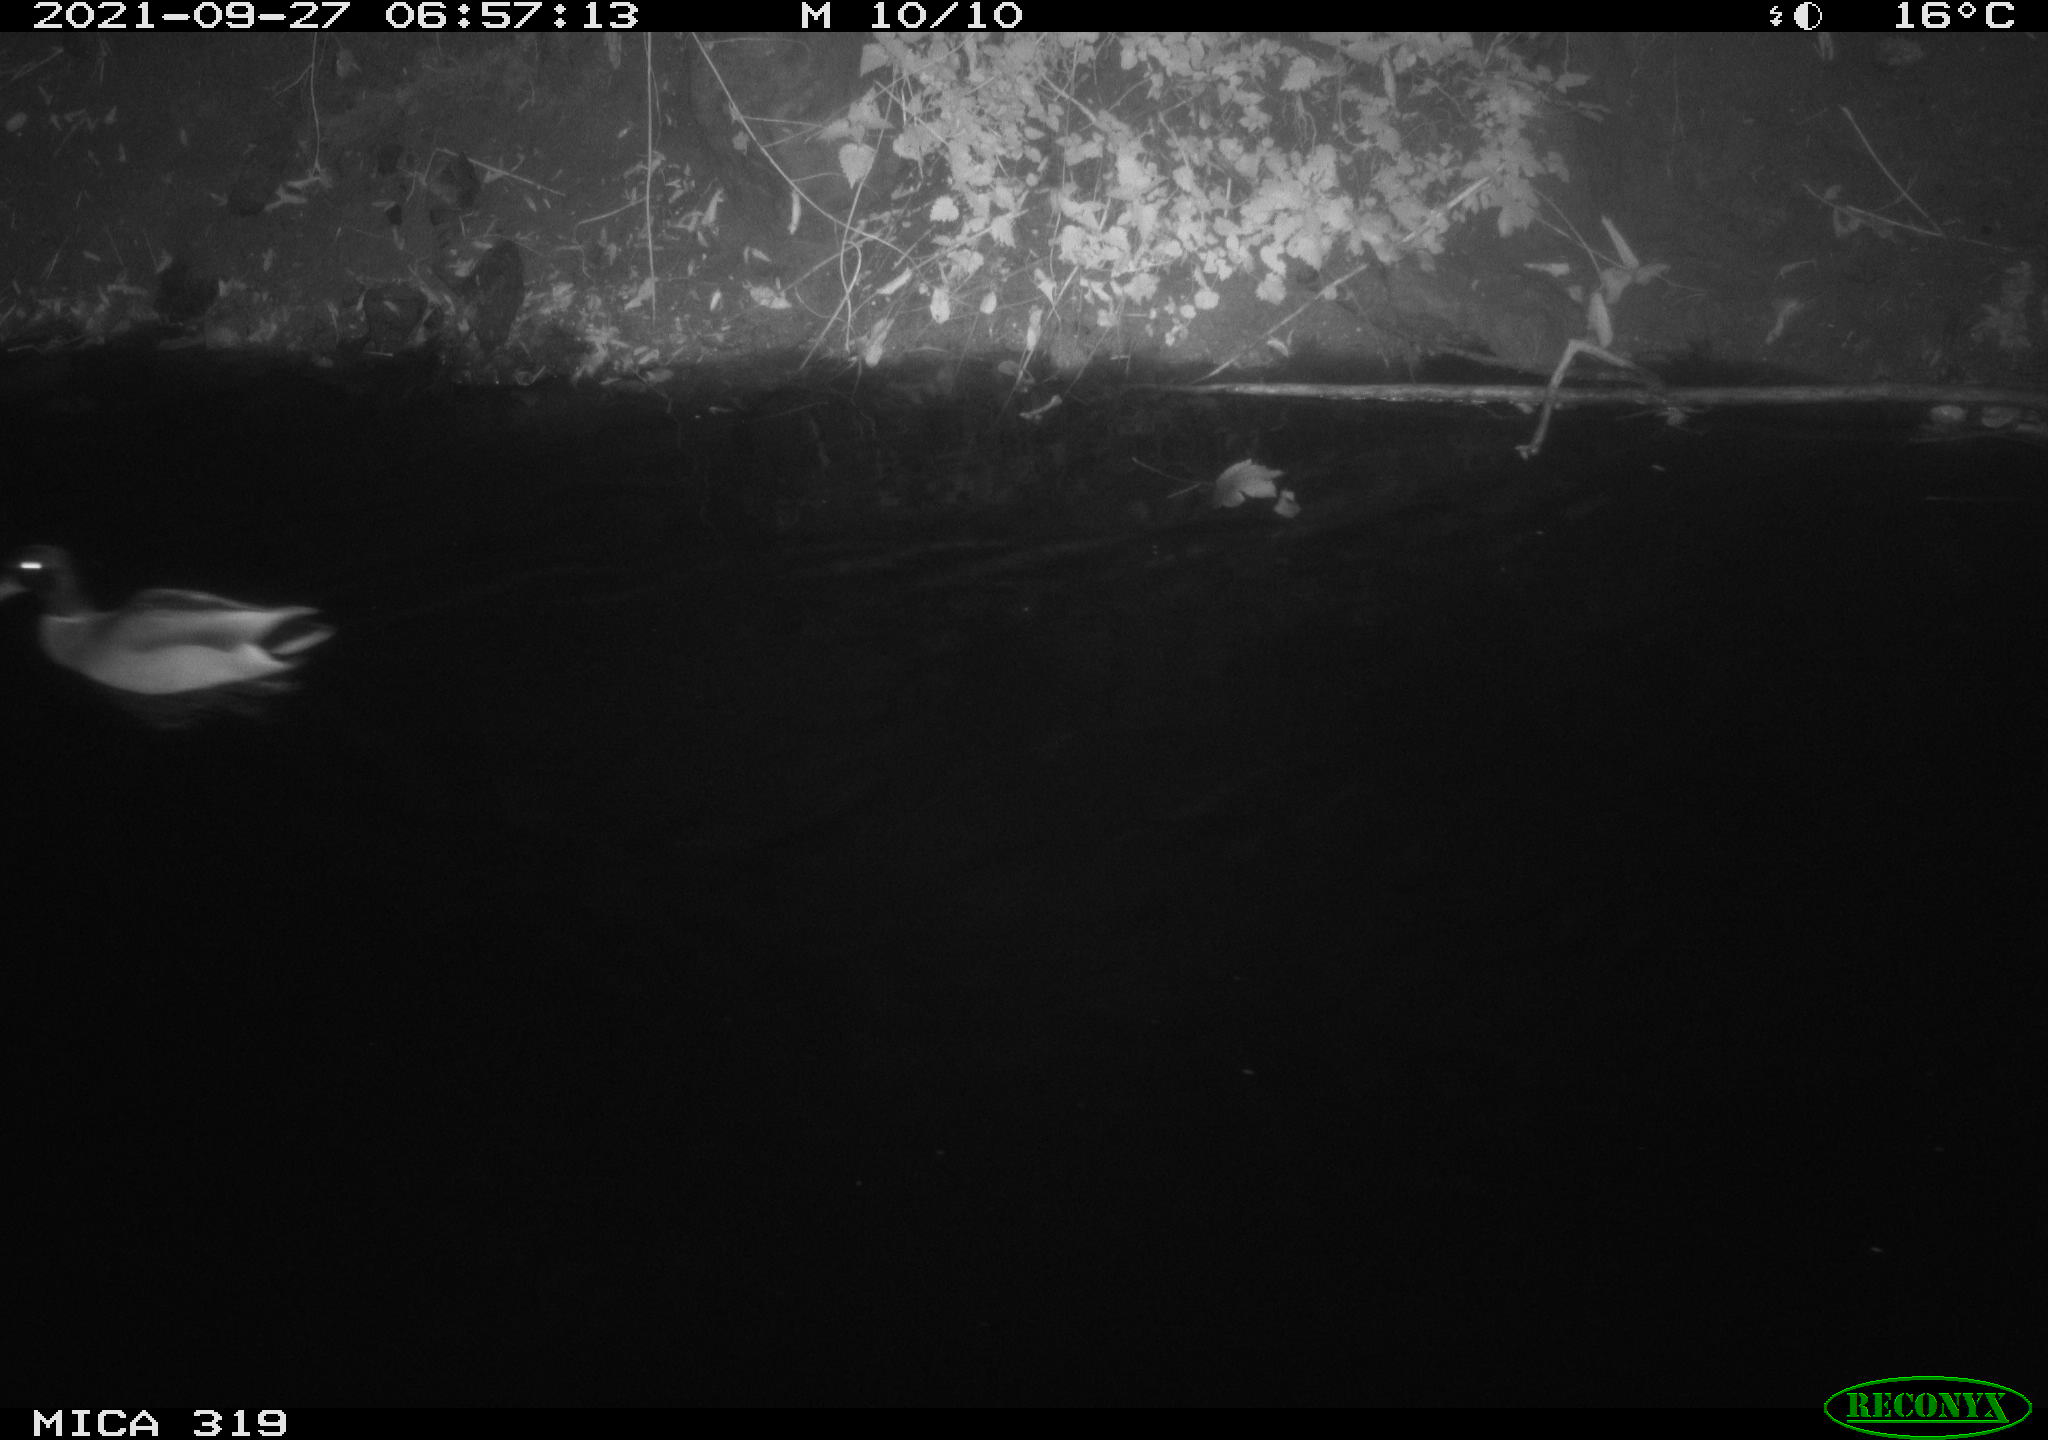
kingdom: Animalia
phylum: Chordata
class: Aves
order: Anseriformes
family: Anatidae
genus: Anas
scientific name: Anas platyrhynchos
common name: Mallard
